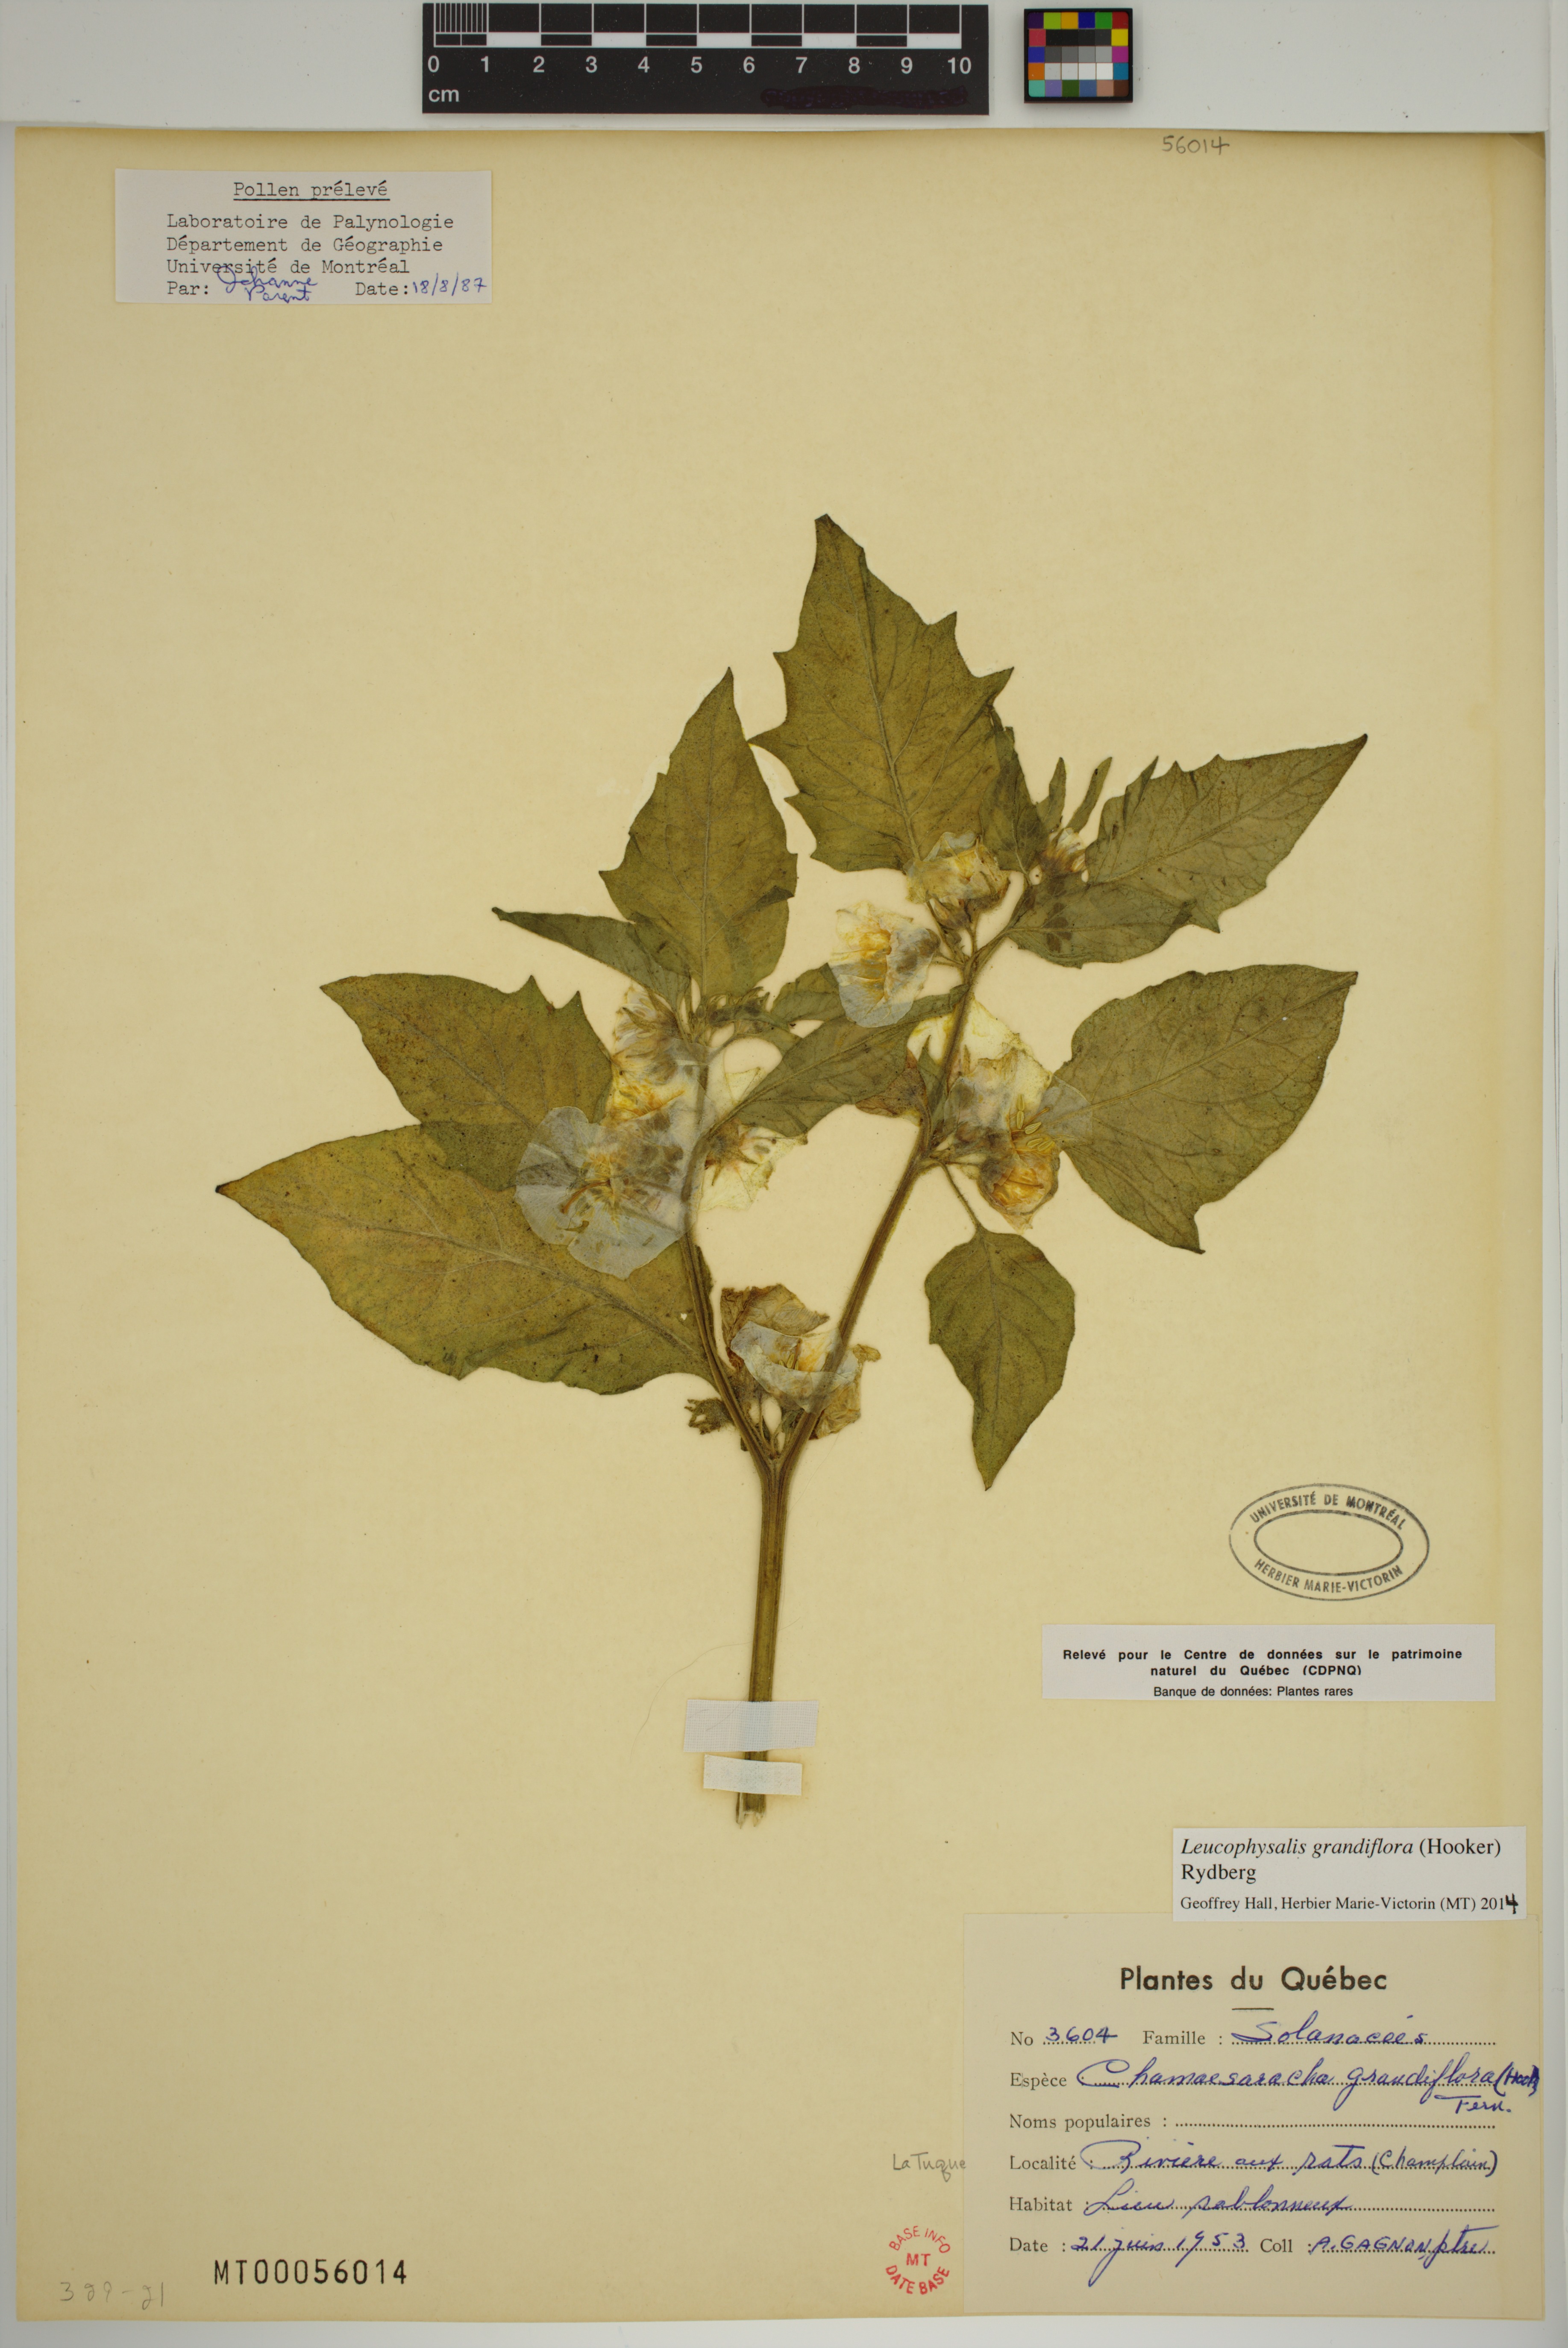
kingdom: Plantae
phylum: Tracheophyta
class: Magnoliopsida
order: Solanales
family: Solanaceae
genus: Leucophysalis
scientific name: Leucophysalis grandiflora
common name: Large false ground-cherry
